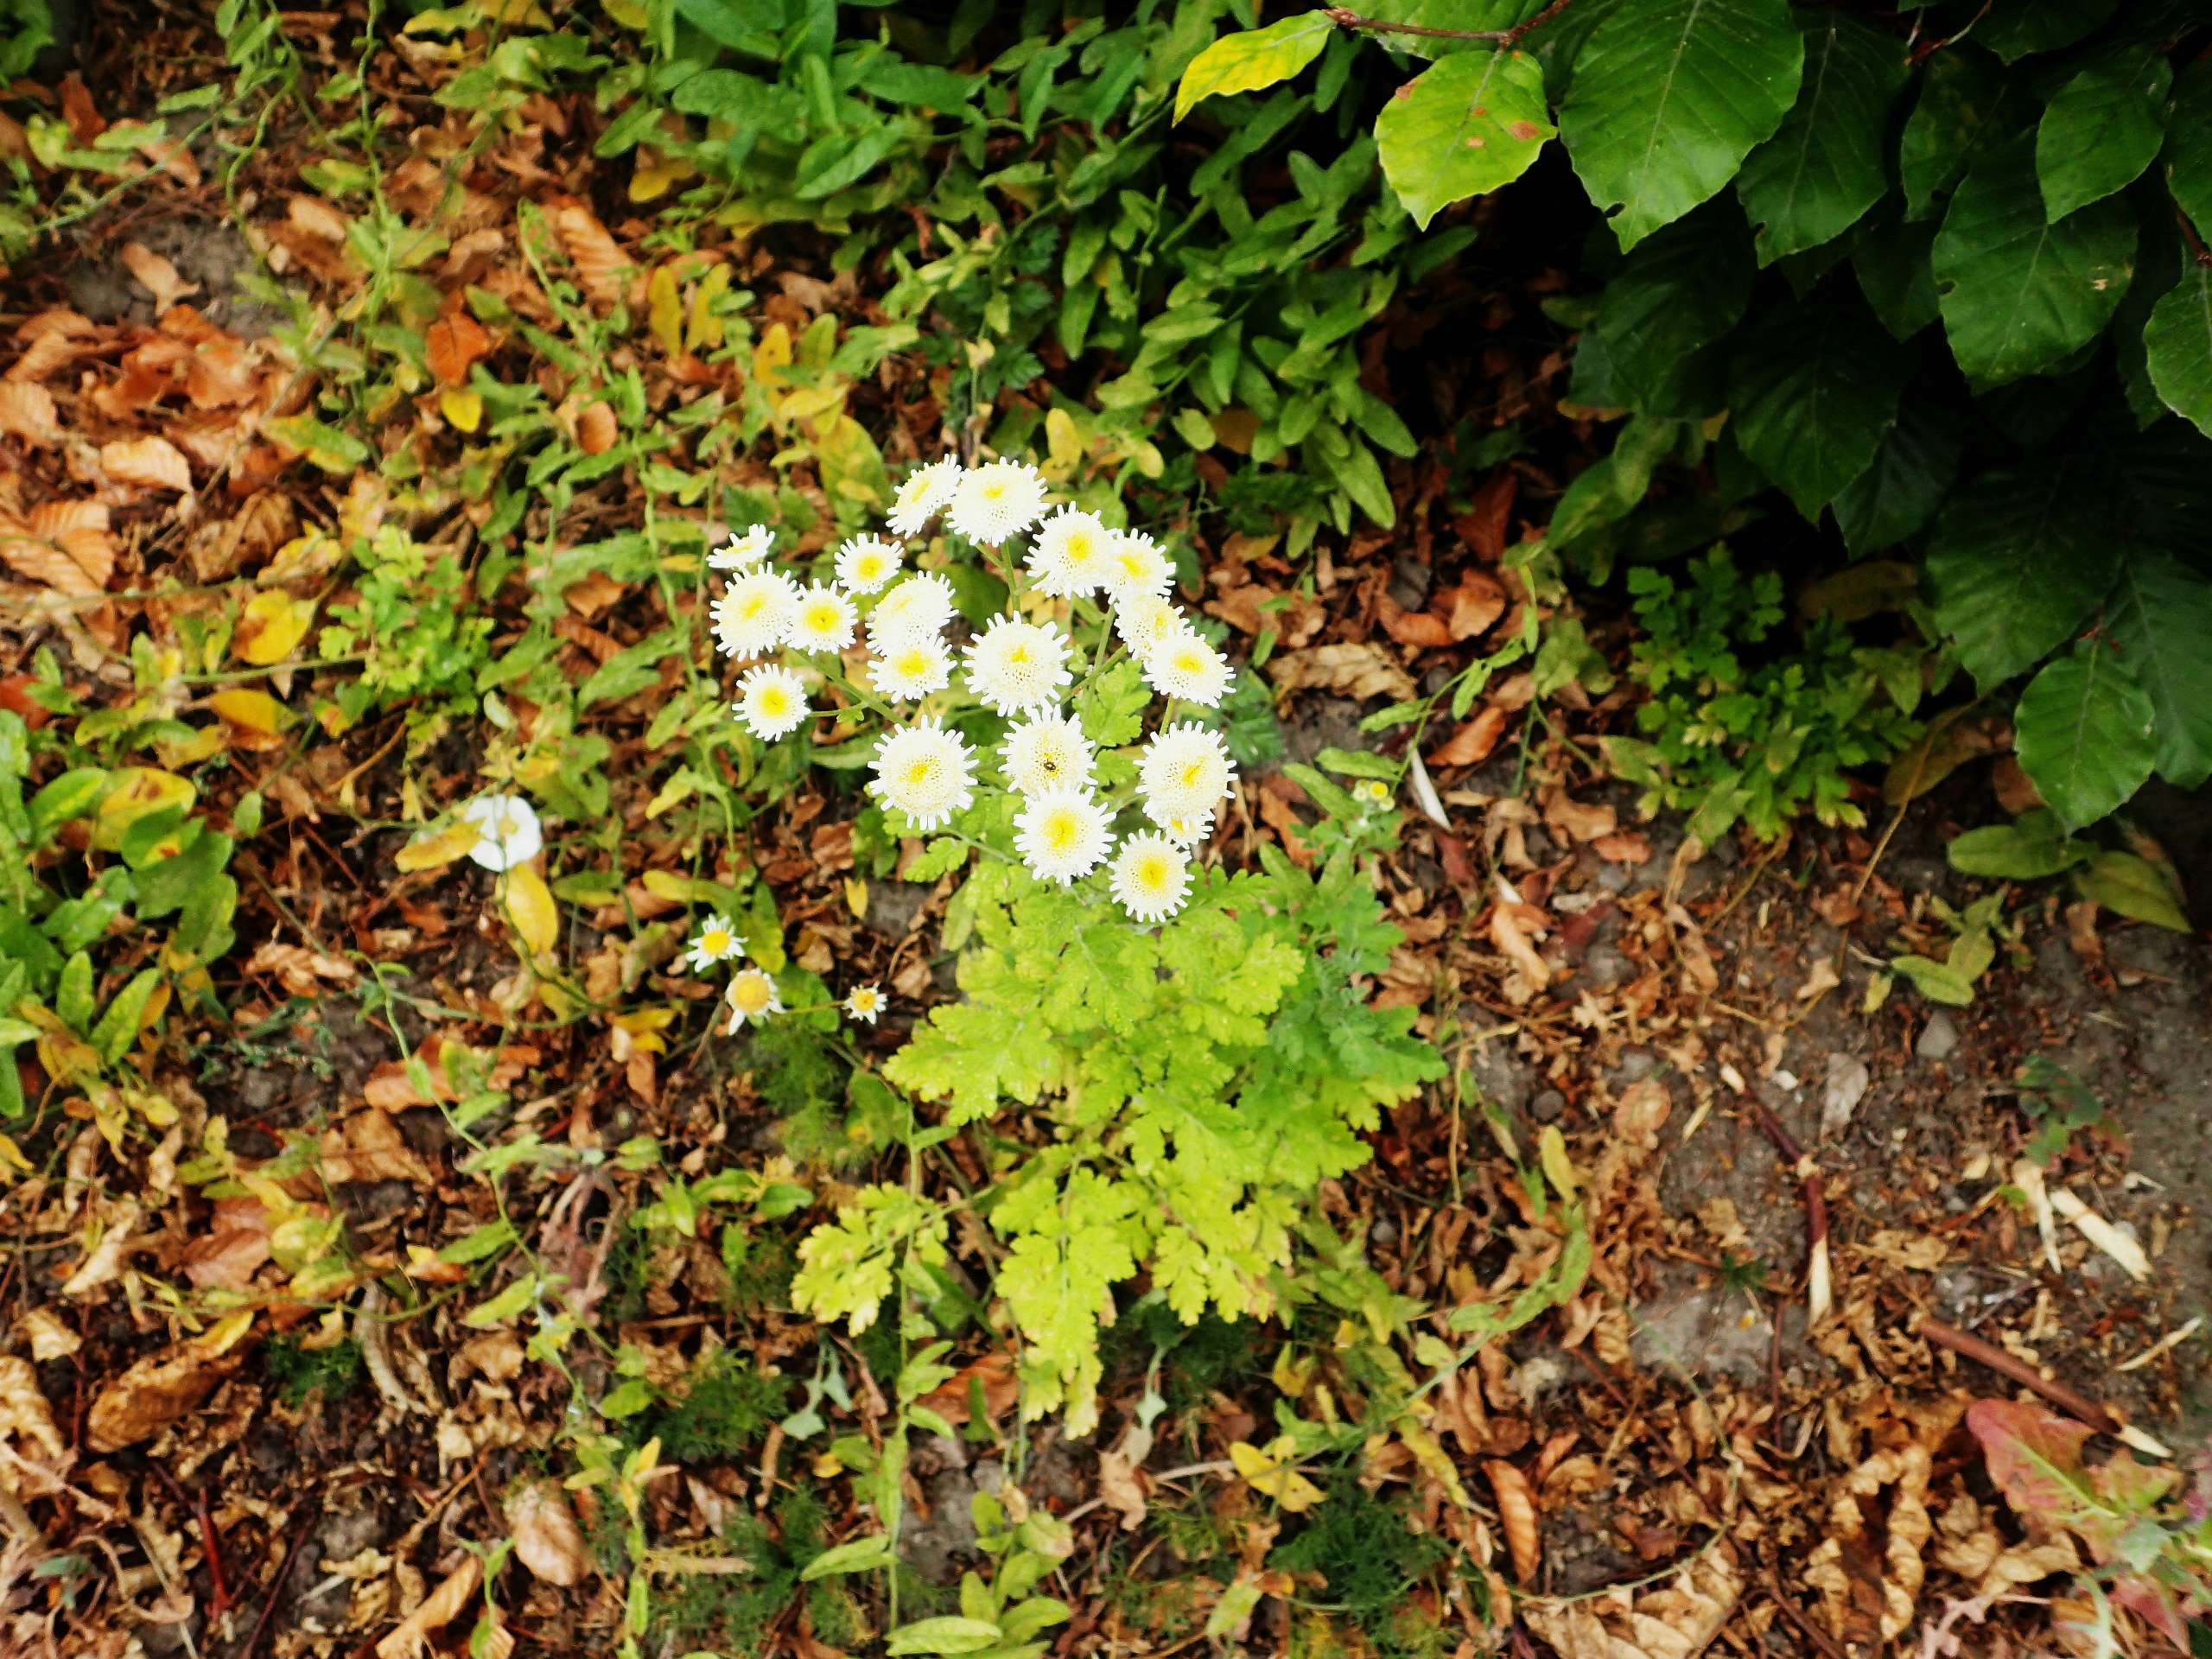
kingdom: Plantae
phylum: Tracheophyta
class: Magnoliopsida
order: Asterales
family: Asteraceae
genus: Tanacetum
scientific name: Tanacetum parthenium
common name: Matrem
